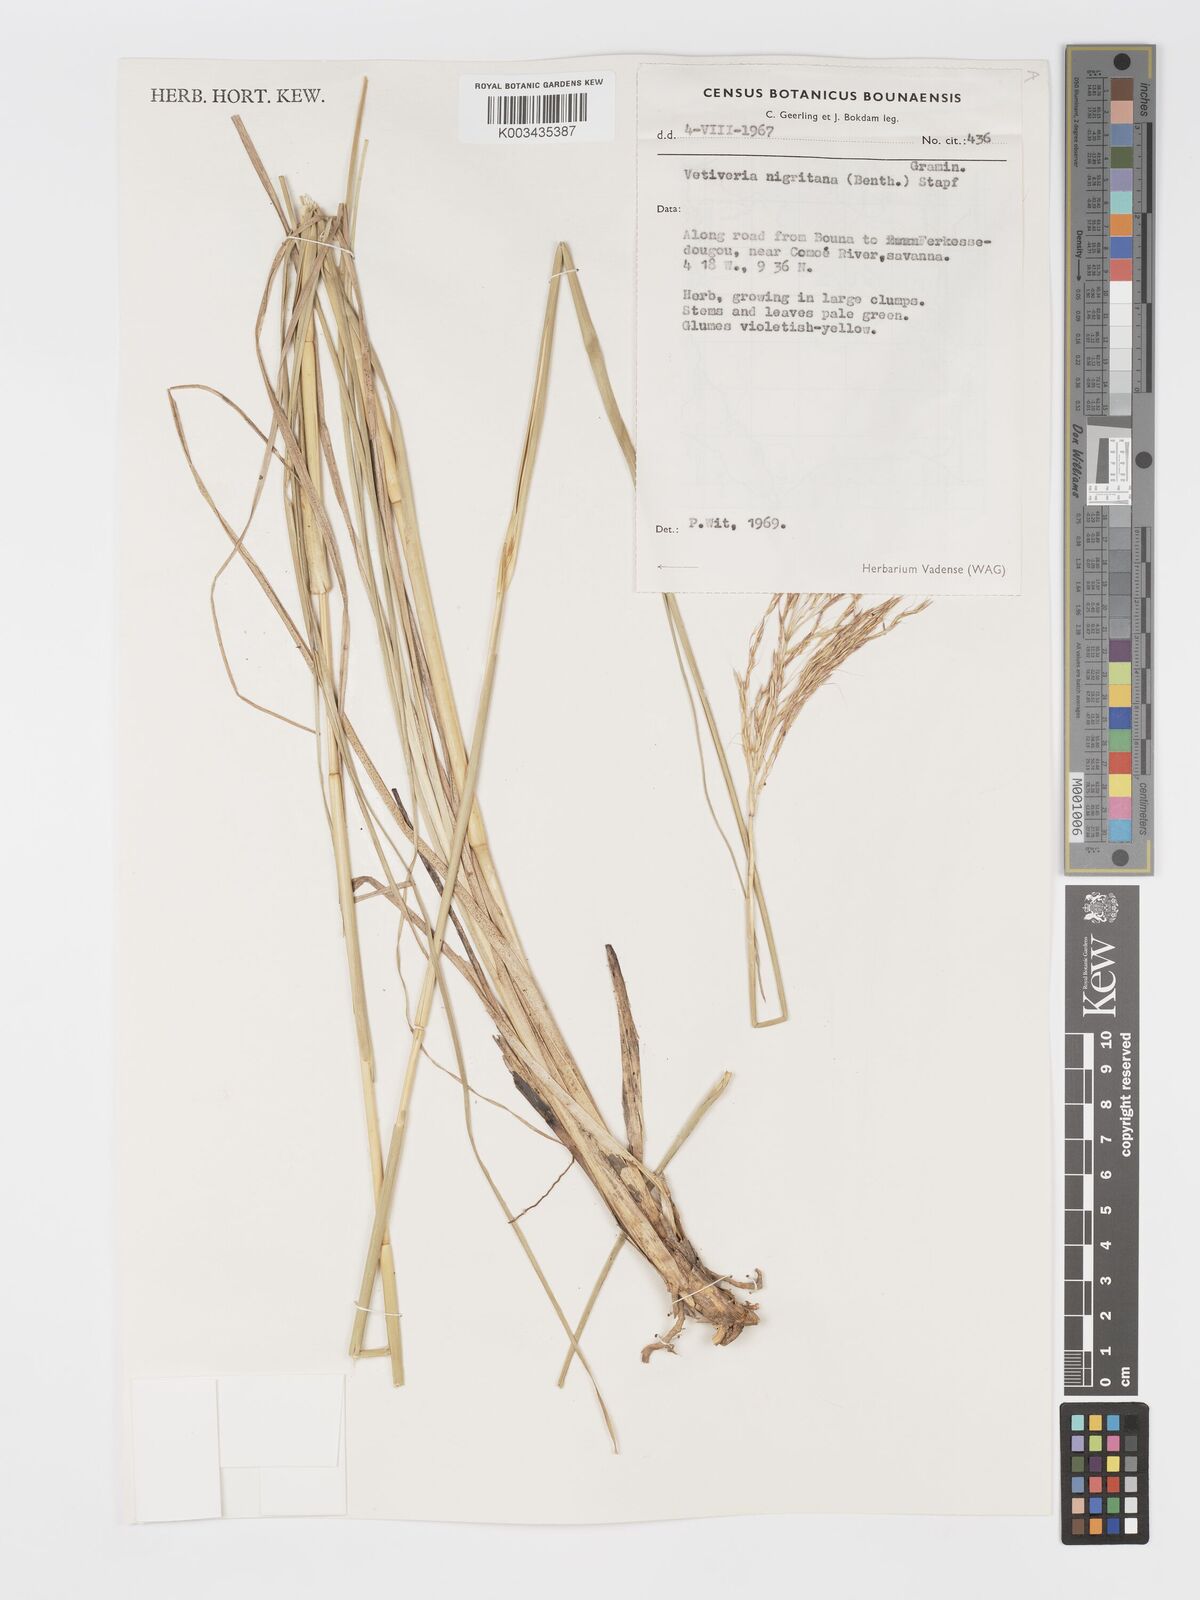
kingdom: Plantae
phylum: Tracheophyta
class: Liliopsida
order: Poales
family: Poaceae
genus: Chrysopogon
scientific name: Chrysopogon nigritanus
